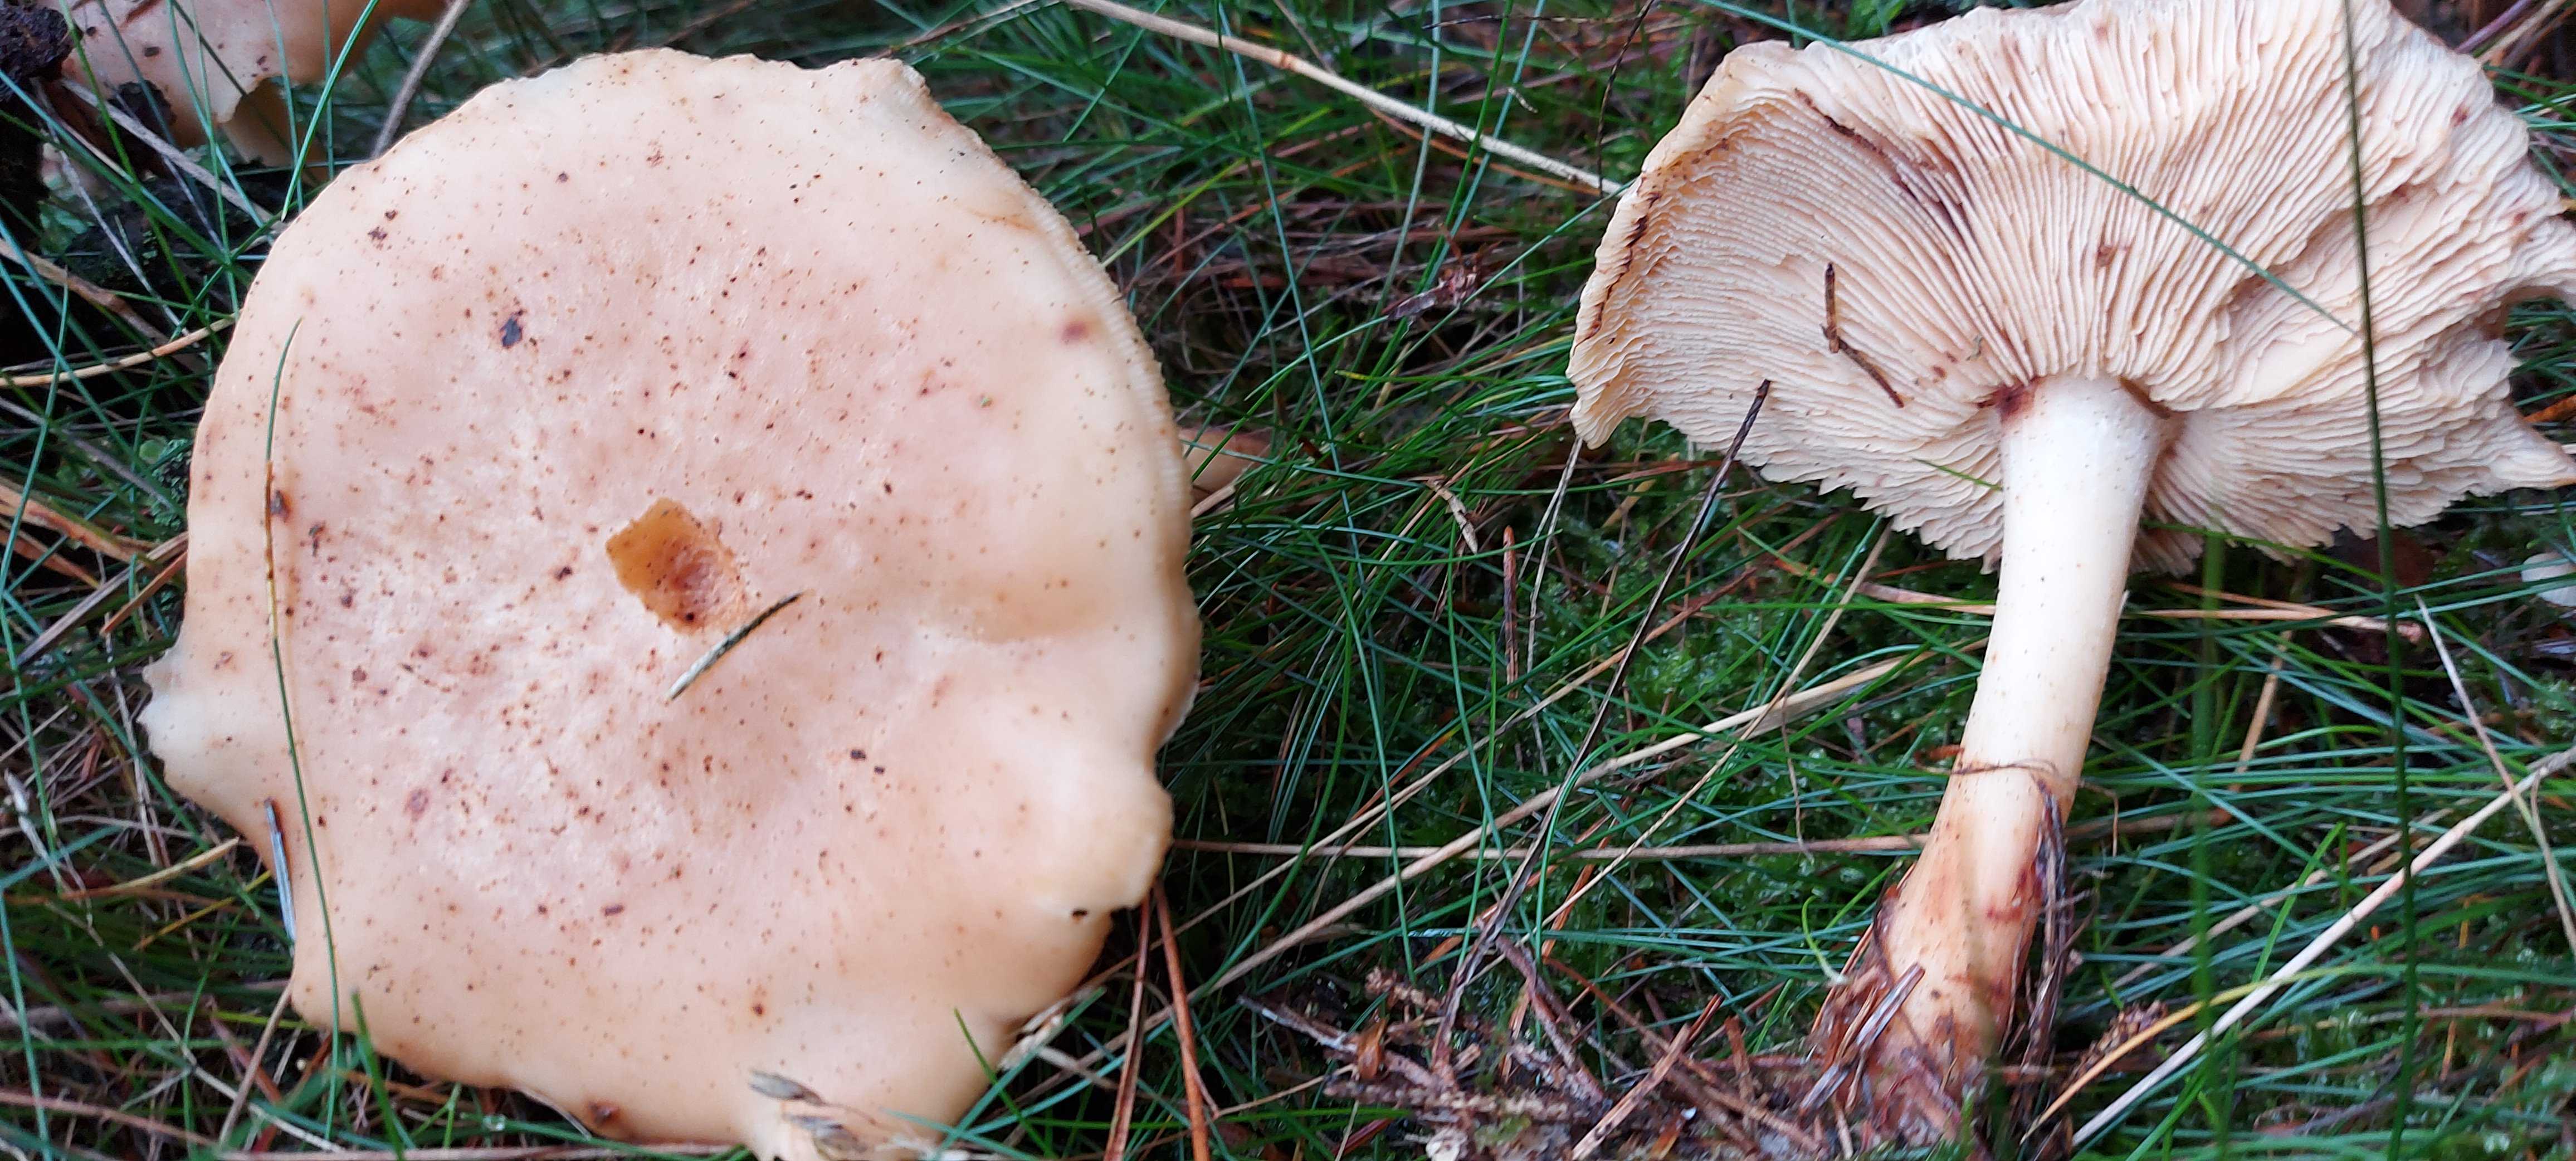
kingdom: Fungi
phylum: Basidiomycota
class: Agaricomycetes
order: Agaricales
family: Omphalotaceae
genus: Rhodocollybia
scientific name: Rhodocollybia maculata
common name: plettet fladhat
